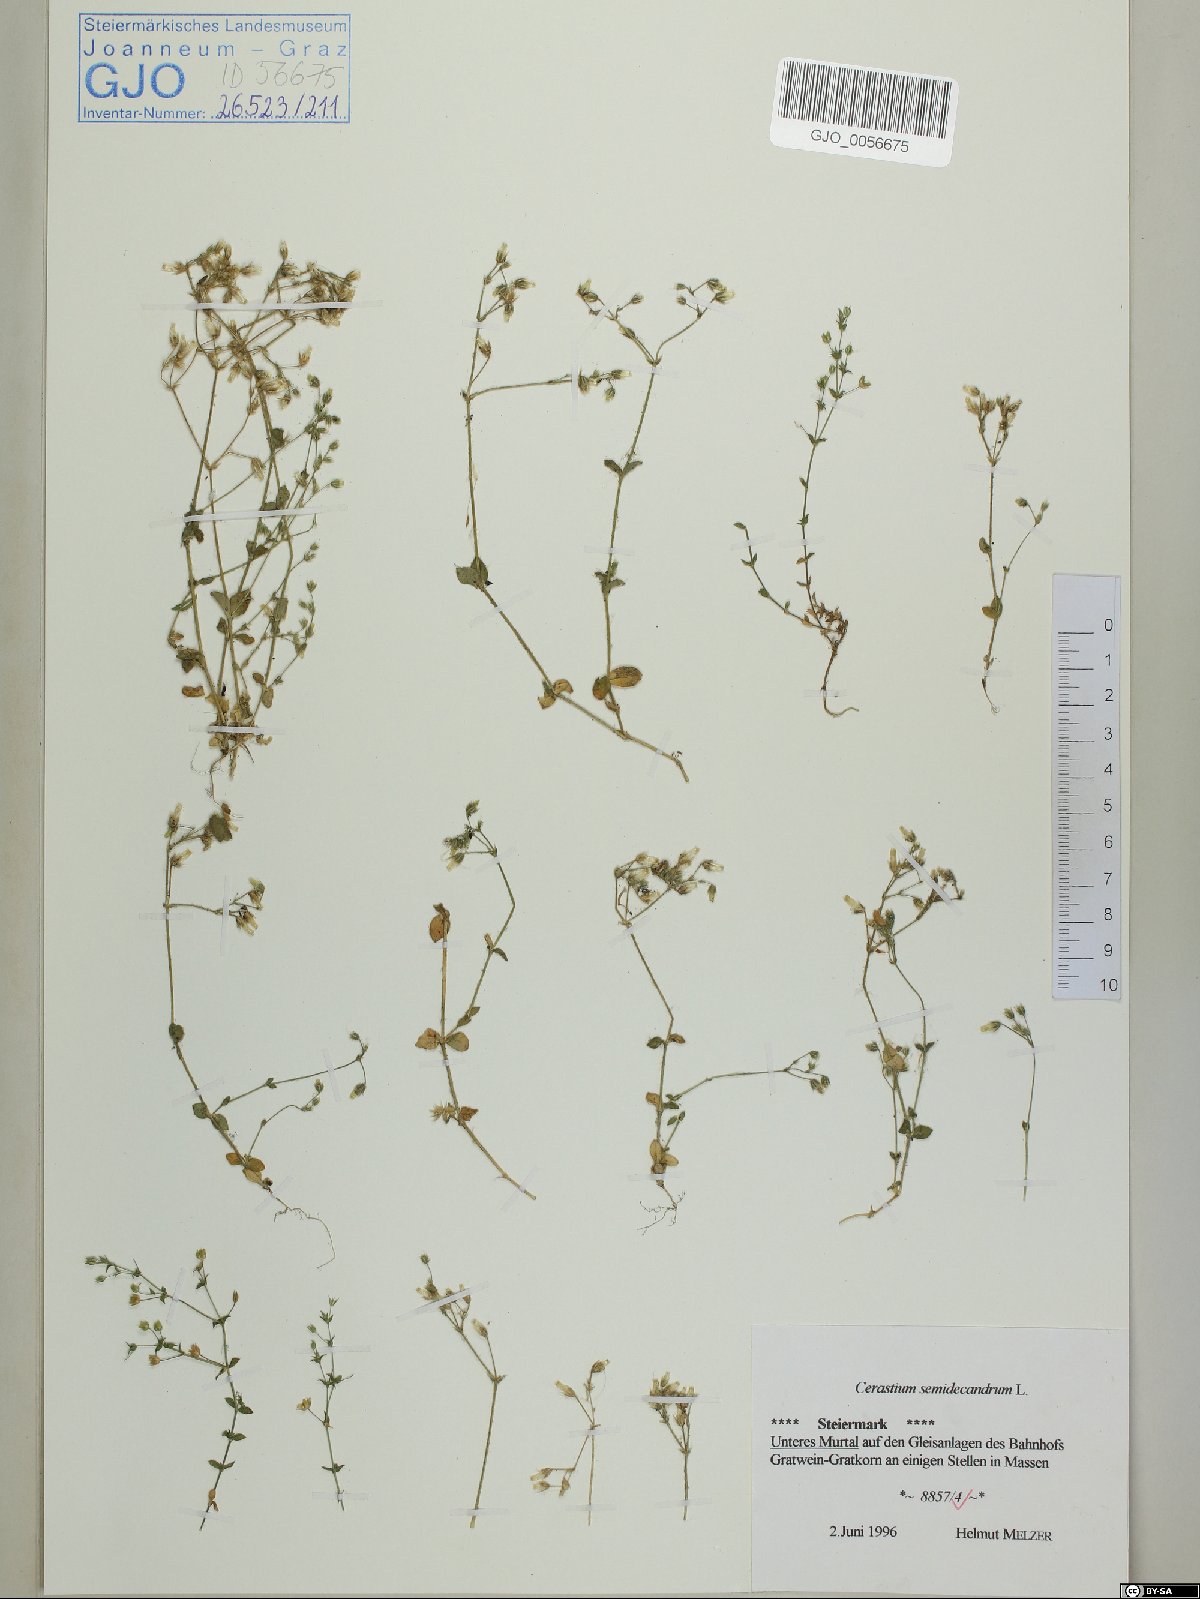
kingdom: Plantae
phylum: Tracheophyta
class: Magnoliopsida
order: Caryophyllales
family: Caryophyllaceae
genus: Cerastium
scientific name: Cerastium semidecandrum
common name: Little mouse-ear
